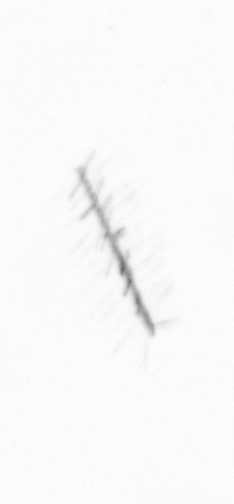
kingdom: Chromista
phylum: Ochrophyta
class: Bacillariophyceae
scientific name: Bacillariophyceae
